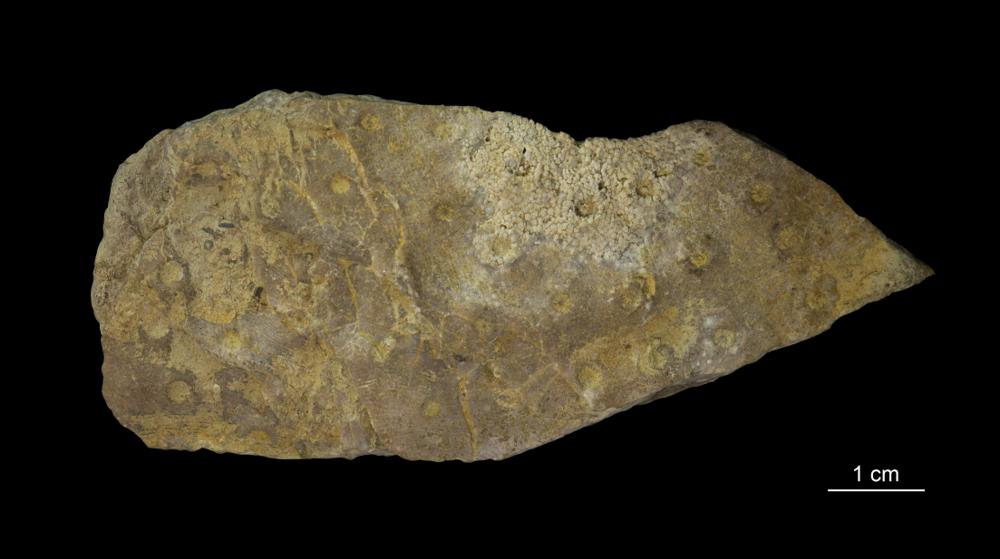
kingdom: Plantae
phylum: Tracheophyta
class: Magnoliopsida
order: Myrtales
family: Myrtaceae
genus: Darwinia
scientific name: Darwinia speciosa
